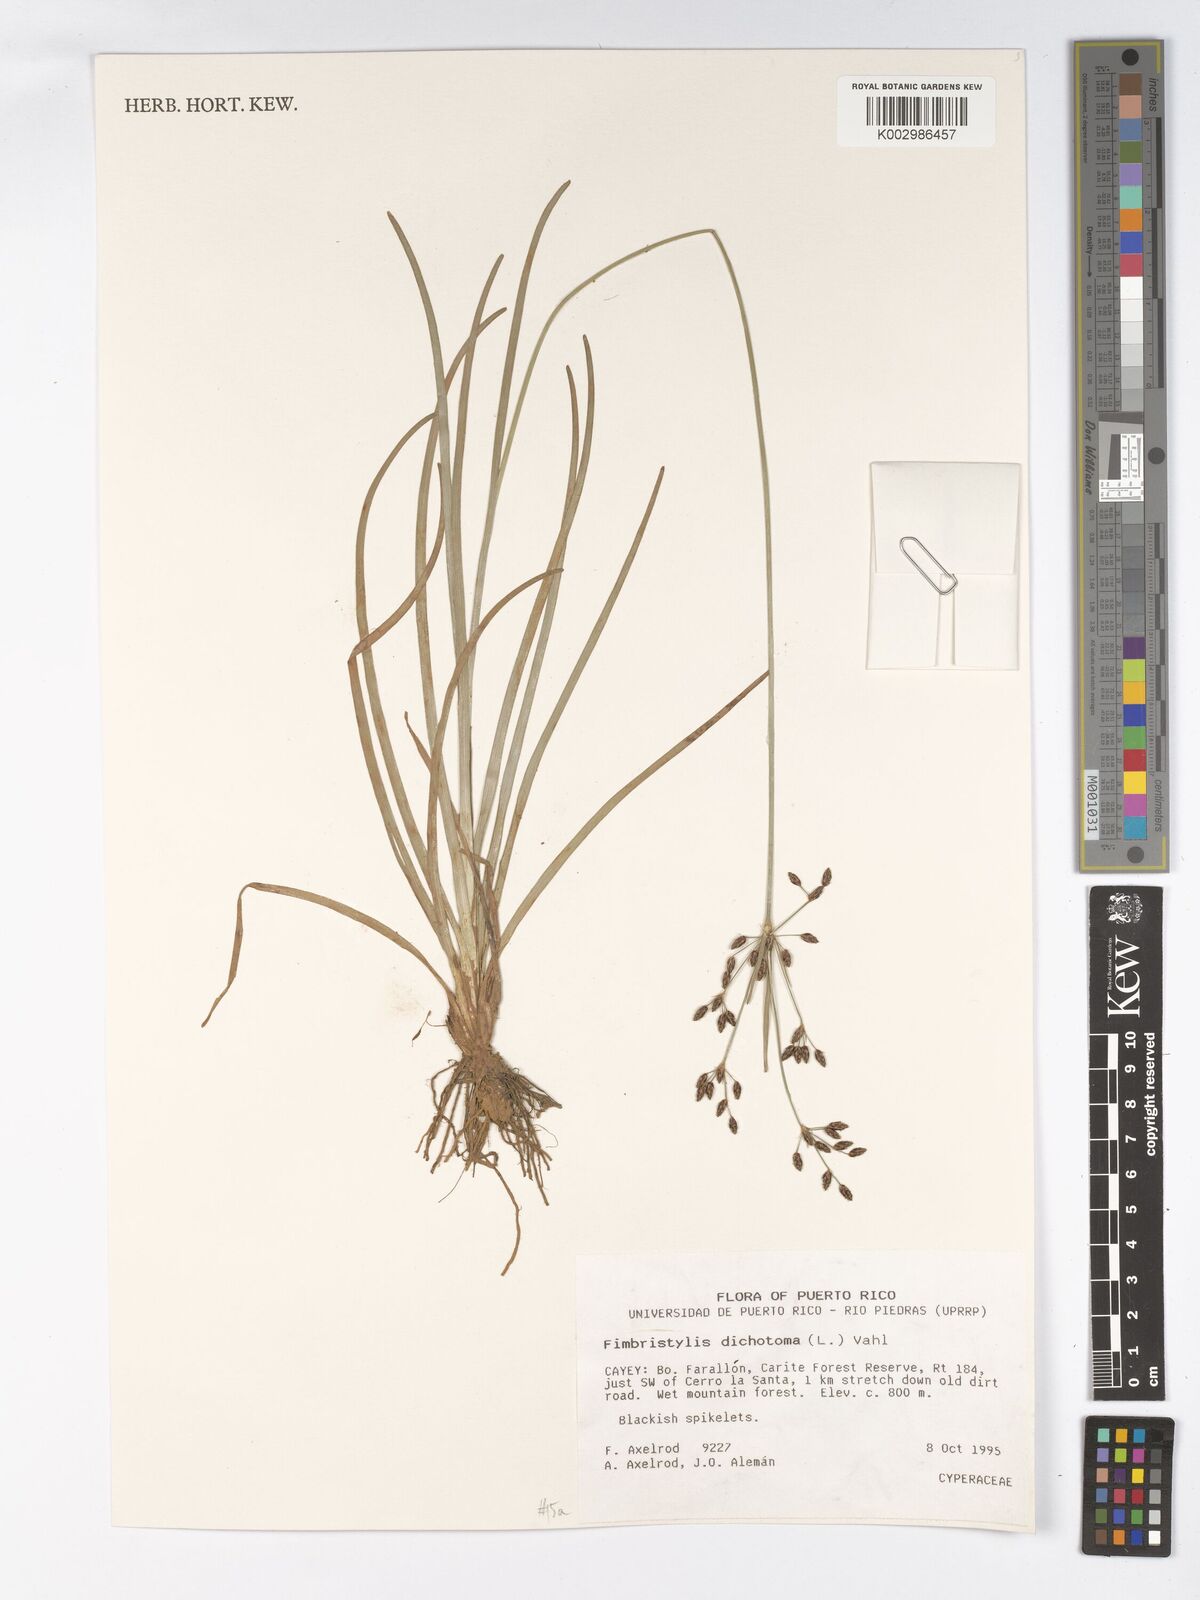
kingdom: Plantae
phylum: Tracheophyta
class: Liliopsida
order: Poales
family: Cyperaceae
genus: Fimbristylis
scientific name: Fimbristylis dichotoma
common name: Forked fimbry
